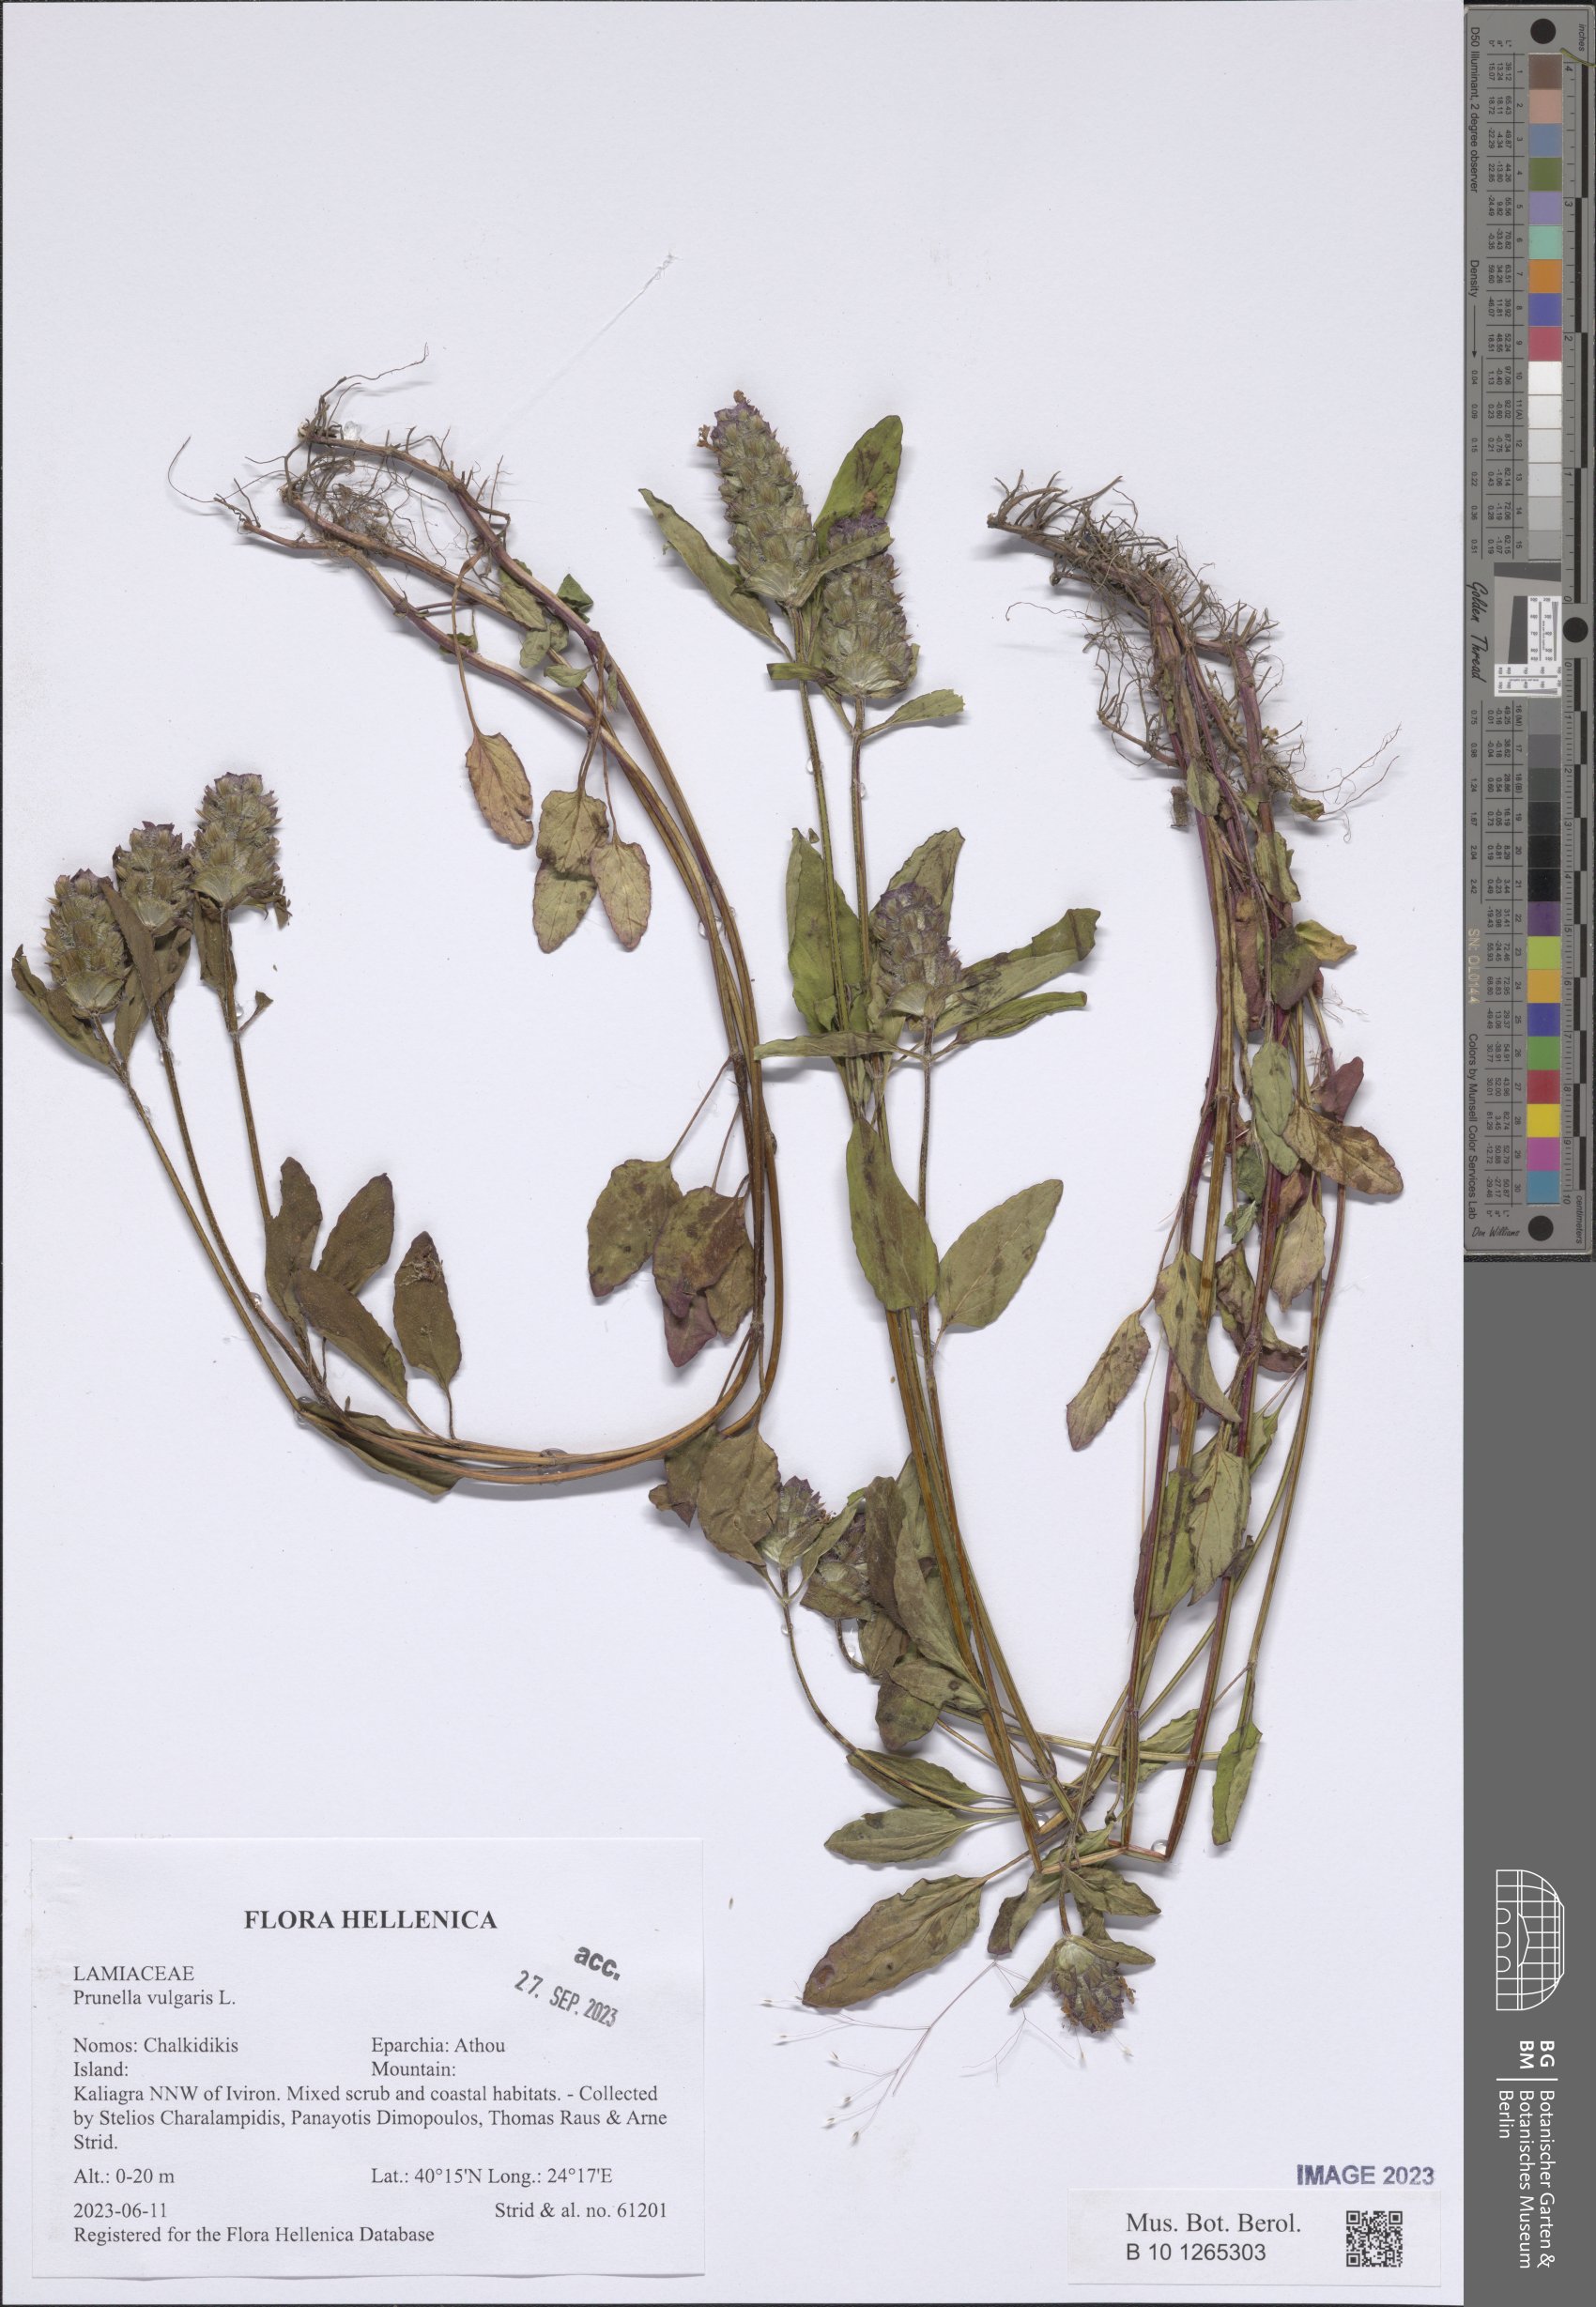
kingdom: Plantae
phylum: Tracheophyta
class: Magnoliopsida
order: Lamiales
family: Lamiaceae
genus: Prunella
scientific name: Prunella vulgaris
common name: Heal-all
